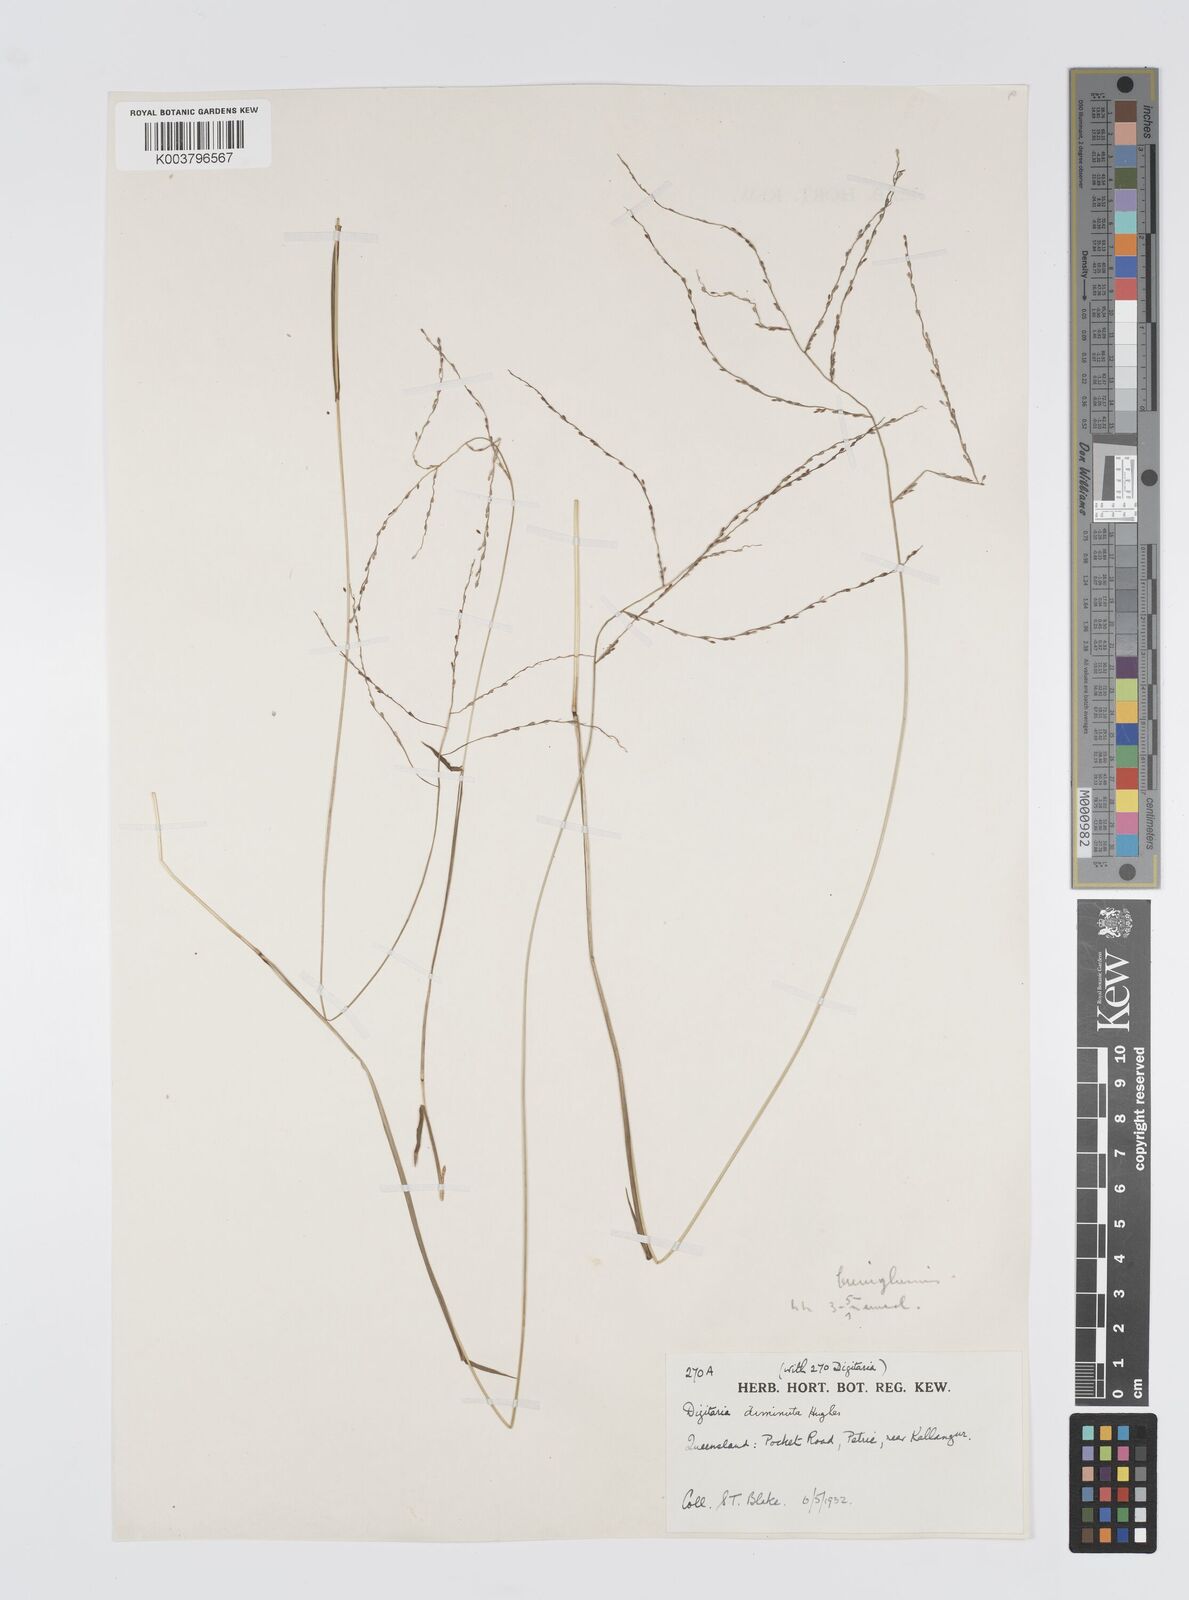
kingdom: Plantae
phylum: Tracheophyta
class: Liliopsida
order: Poales
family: Poaceae
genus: Digitaria
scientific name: Digitaria breviglumis
